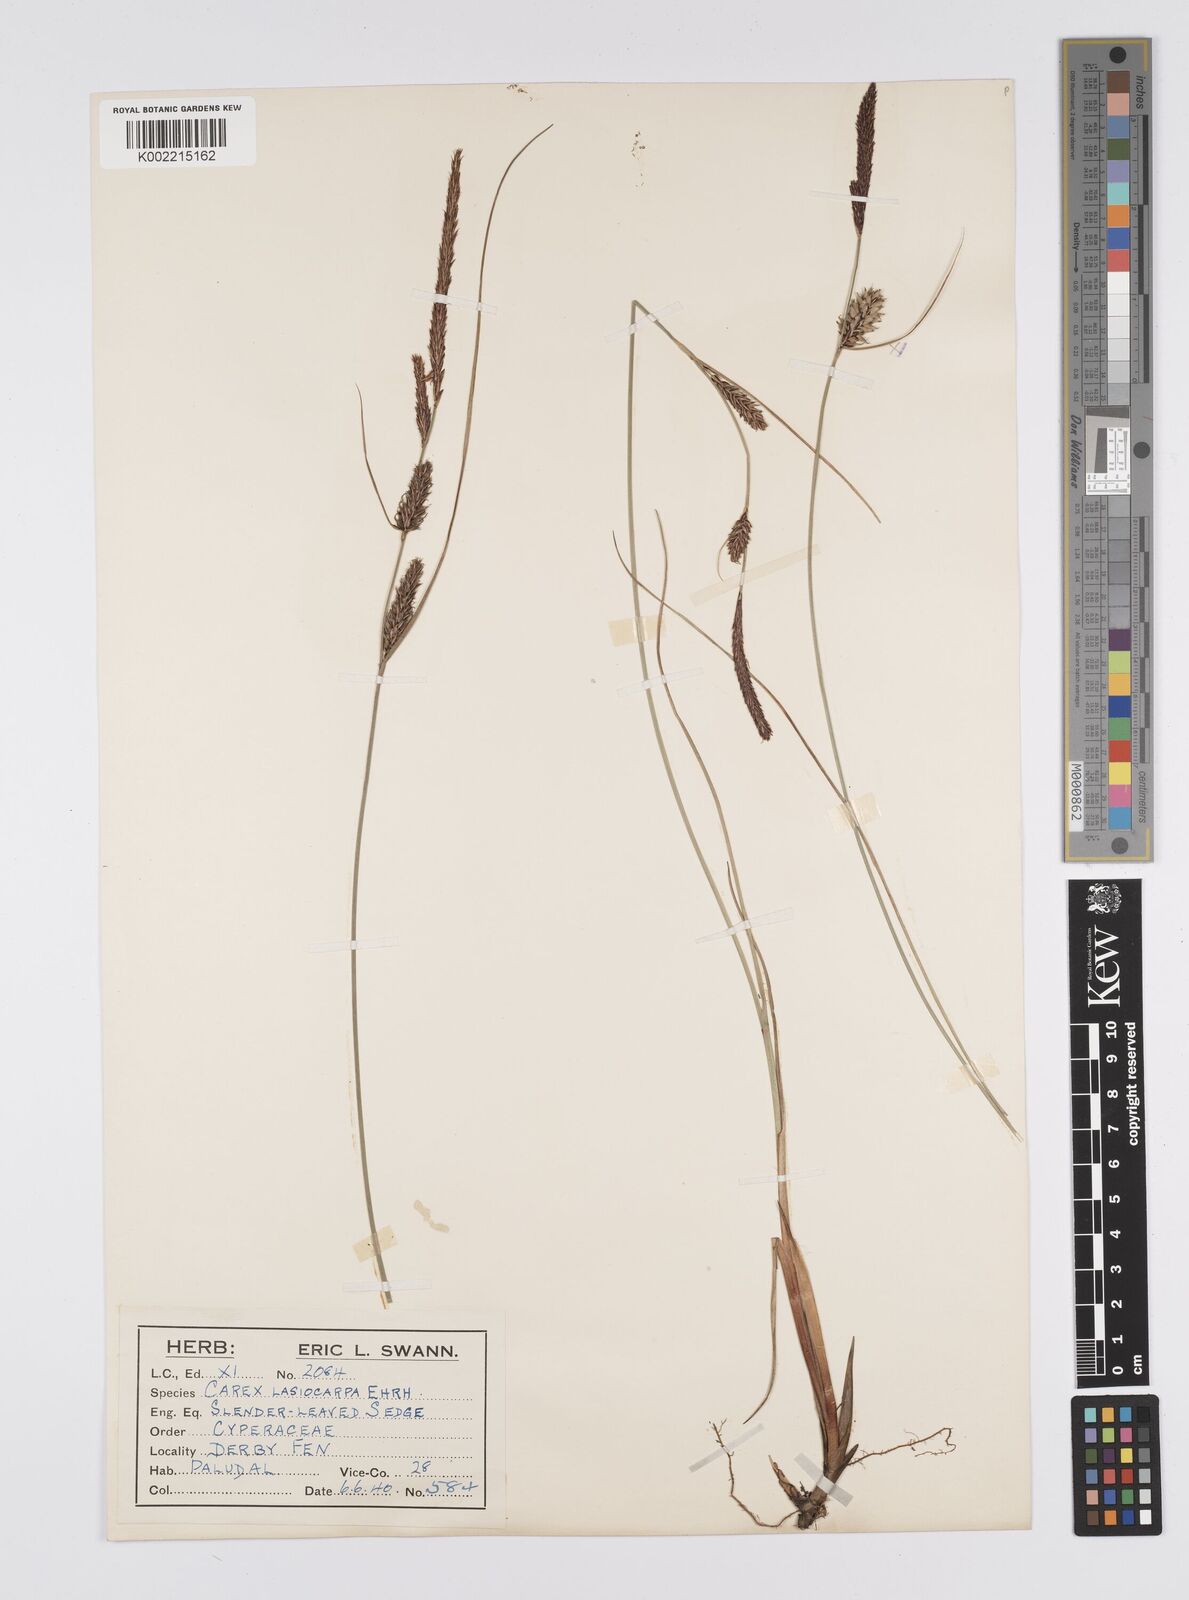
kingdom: Plantae
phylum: Tracheophyta
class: Liliopsida
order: Poales
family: Cyperaceae
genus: Carex
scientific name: Carex lasiocarpa
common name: Slender sedge
